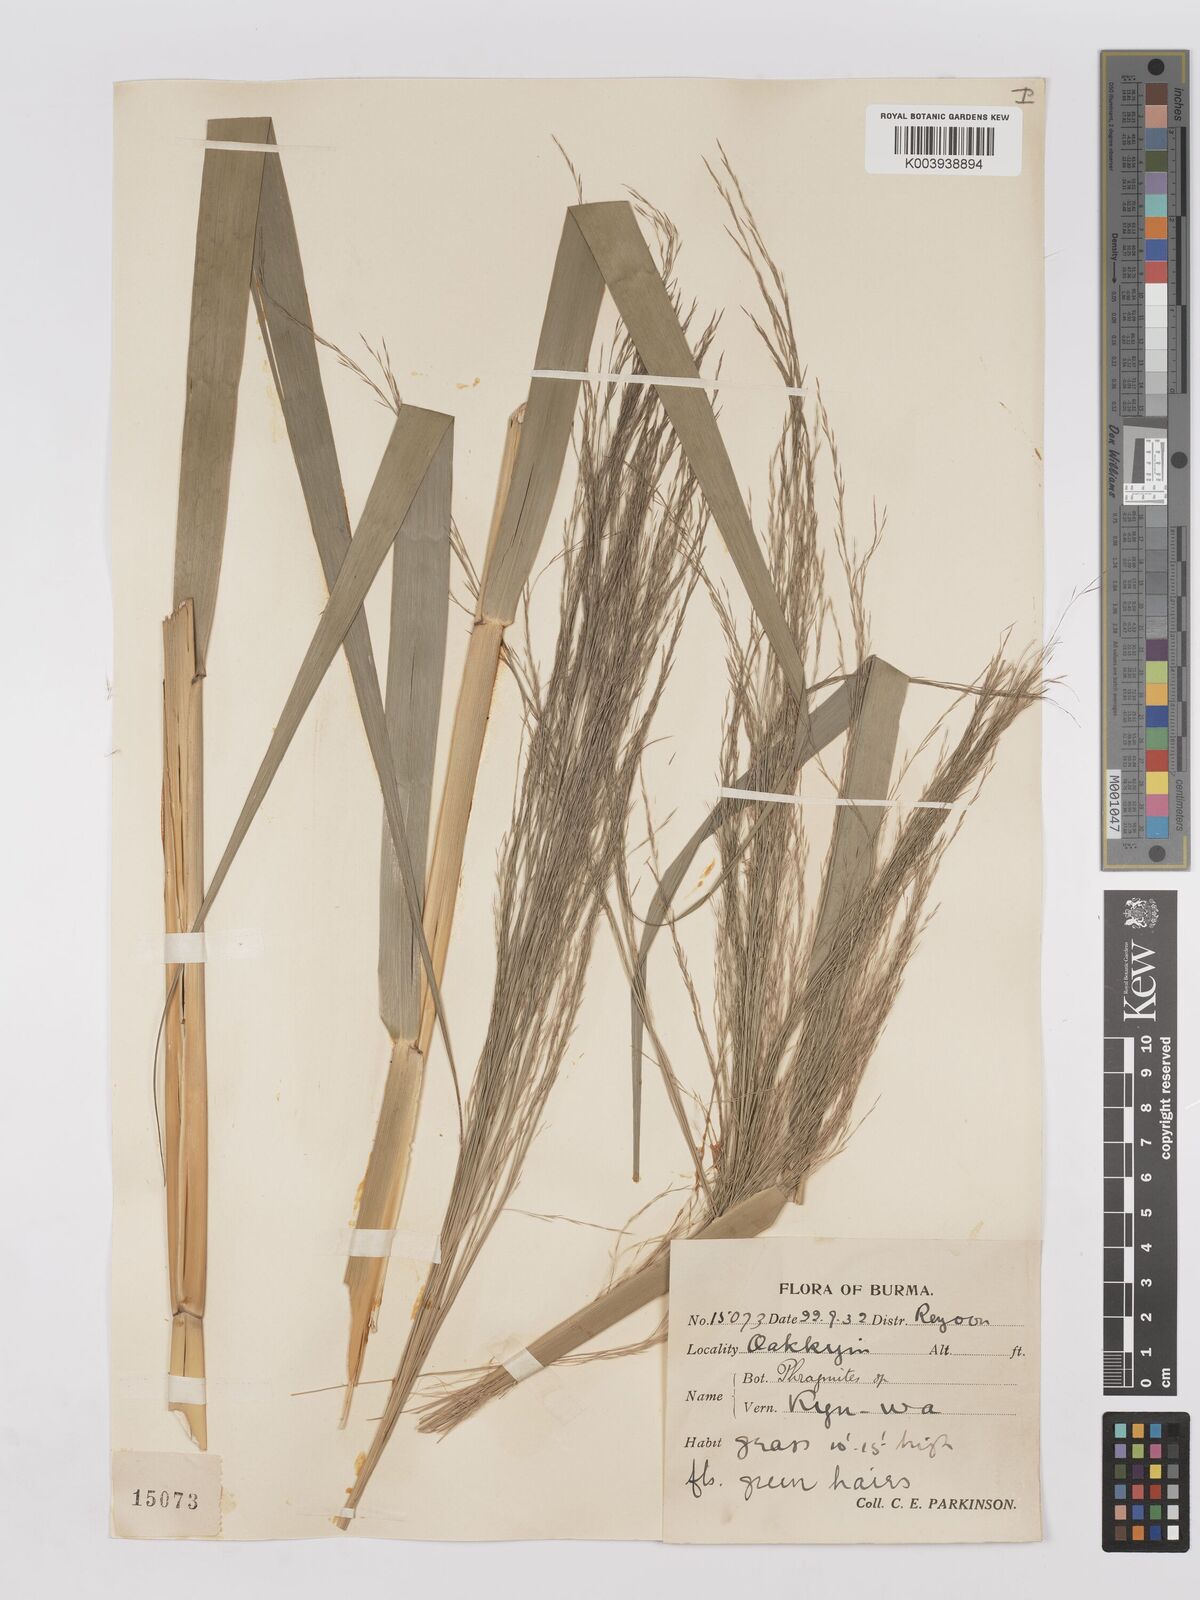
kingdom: Plantae
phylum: Tracheophyta
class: Liliopsida
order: Poales
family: Poaceae
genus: Phragmites
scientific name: Phragmites karka
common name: Tropical reed
